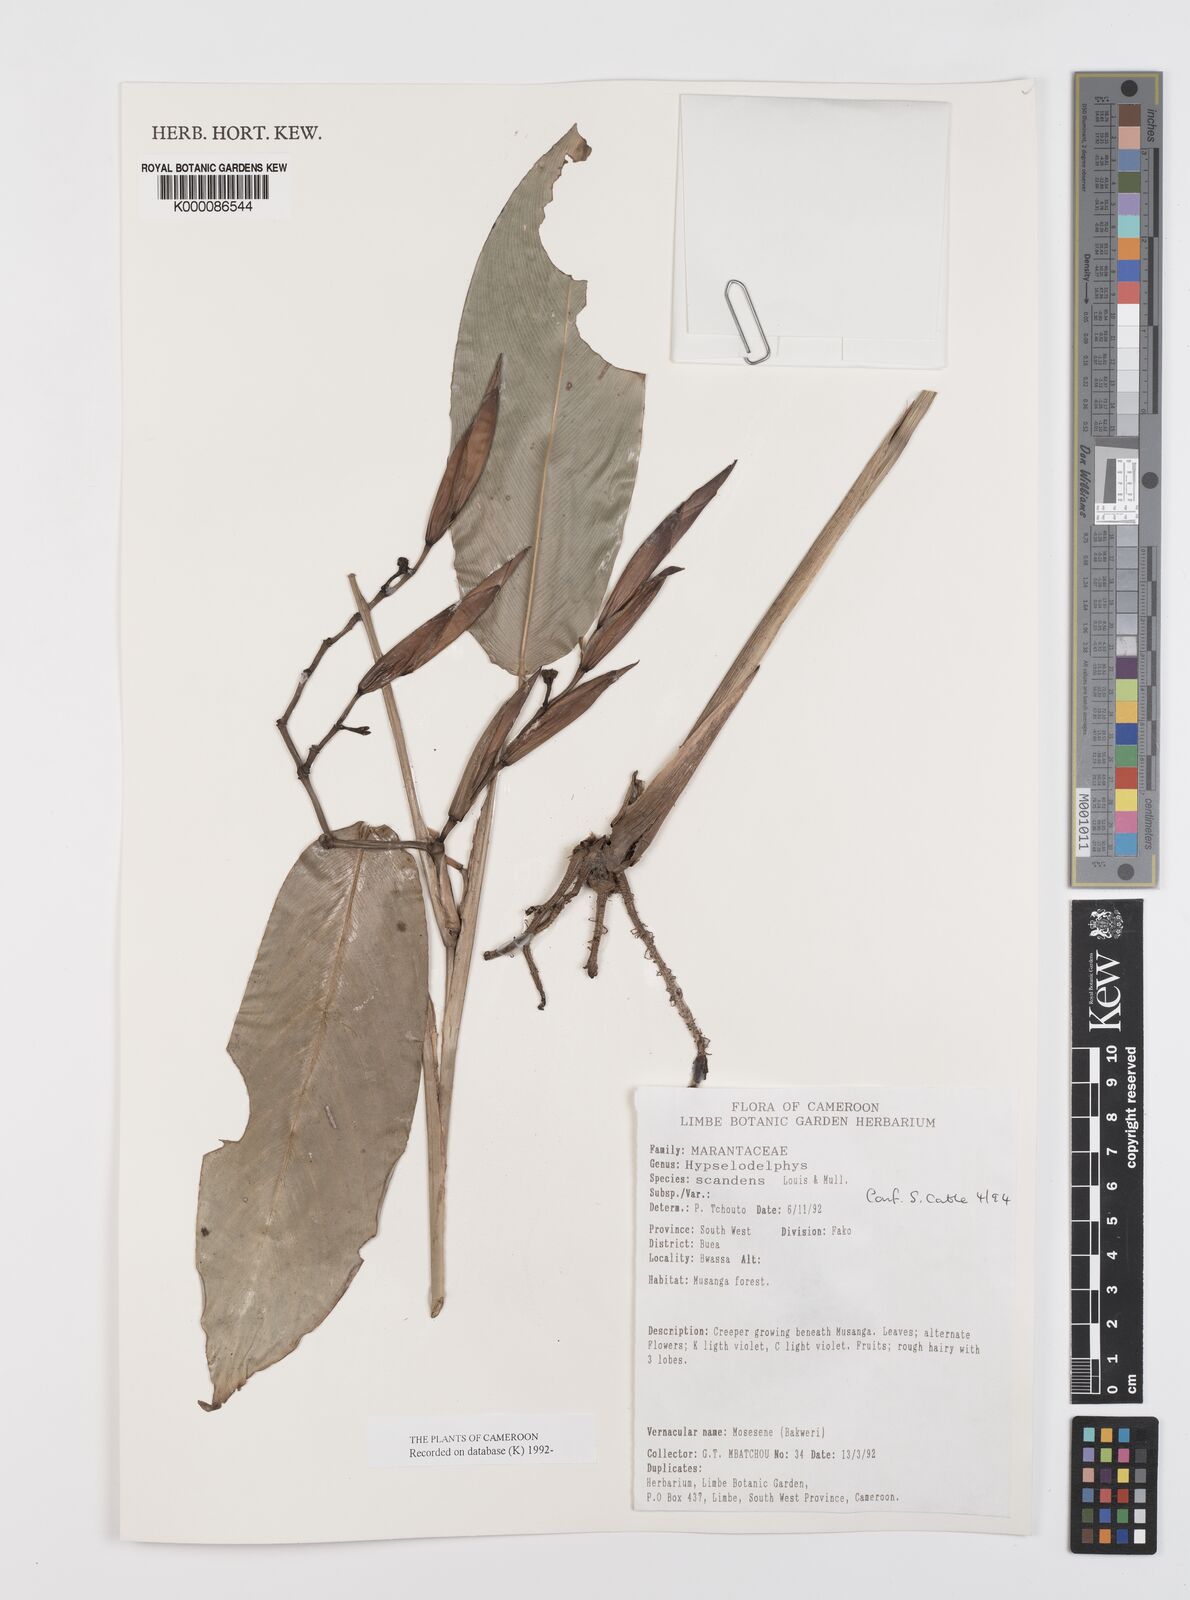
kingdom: Plantae
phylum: Tracheophyta
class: Liliopsida
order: Zingiberales
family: Marantaceae
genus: Hypselodelphys
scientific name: Hypselodelphys scandens
